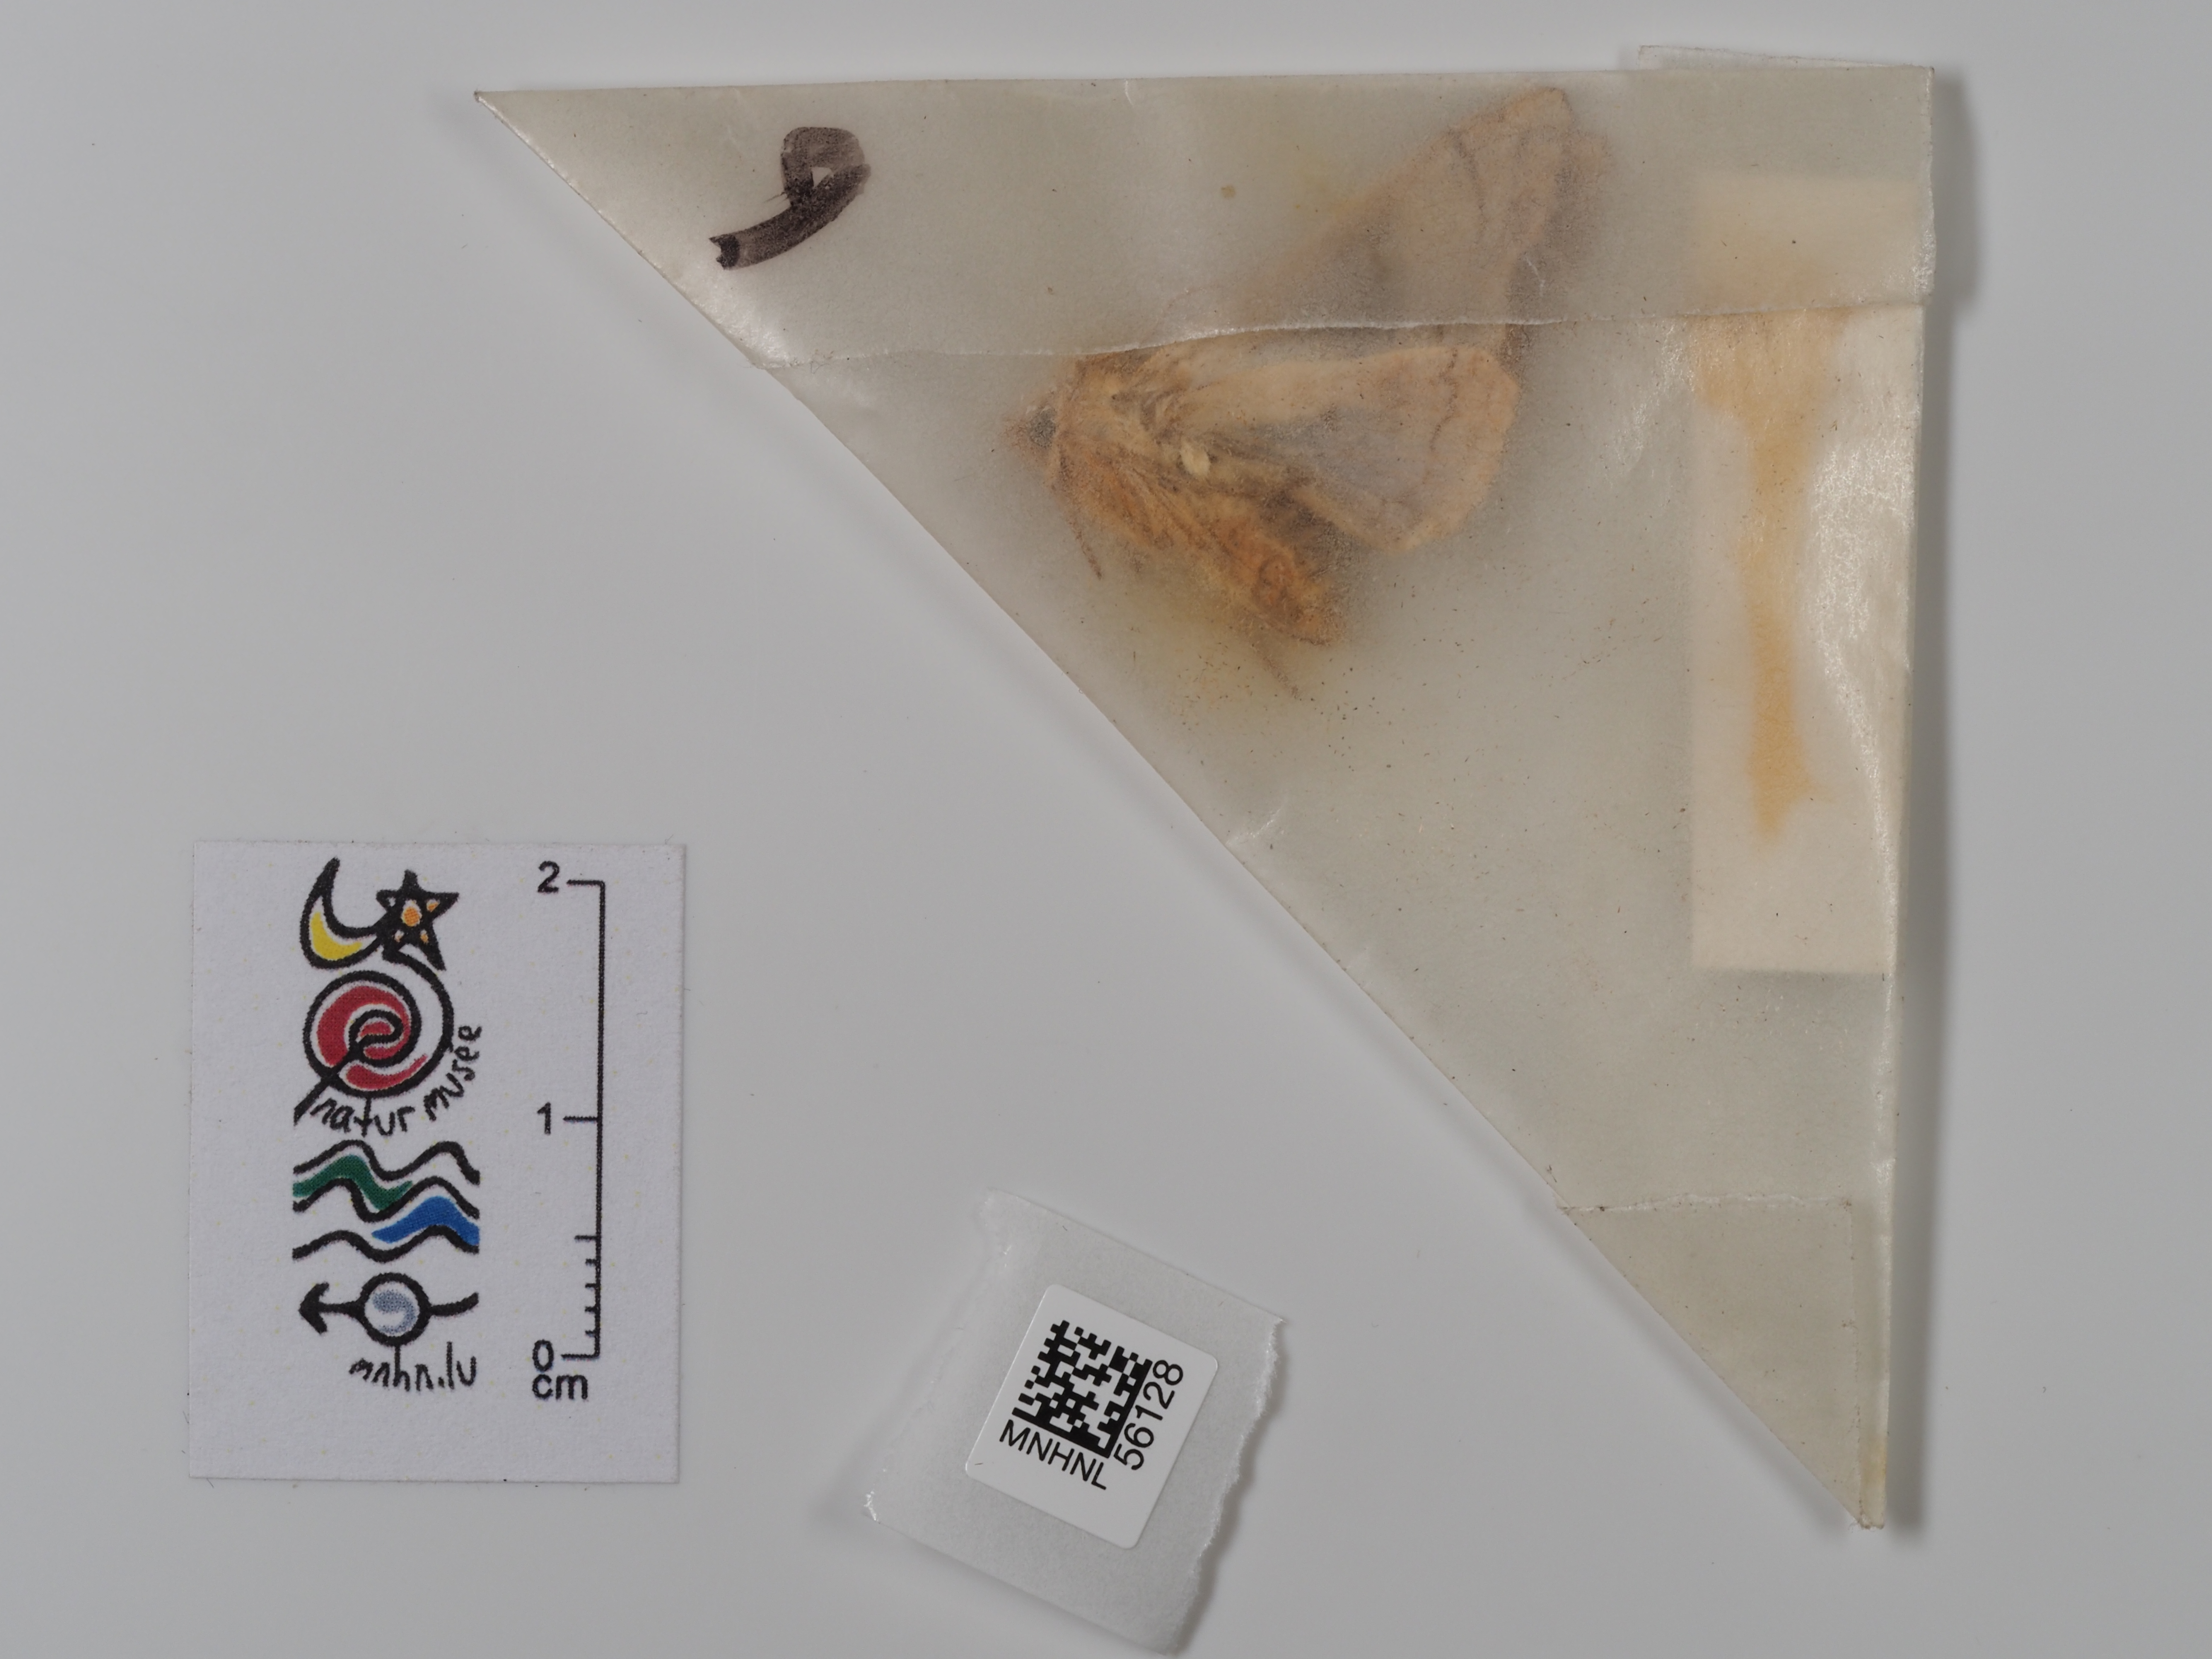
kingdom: Animalia
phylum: Arthropoda
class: Insecta
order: Lepidoptera
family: Noctuidae
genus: Phlogophora
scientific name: Phlogophora meticulosa
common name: Angle shades
